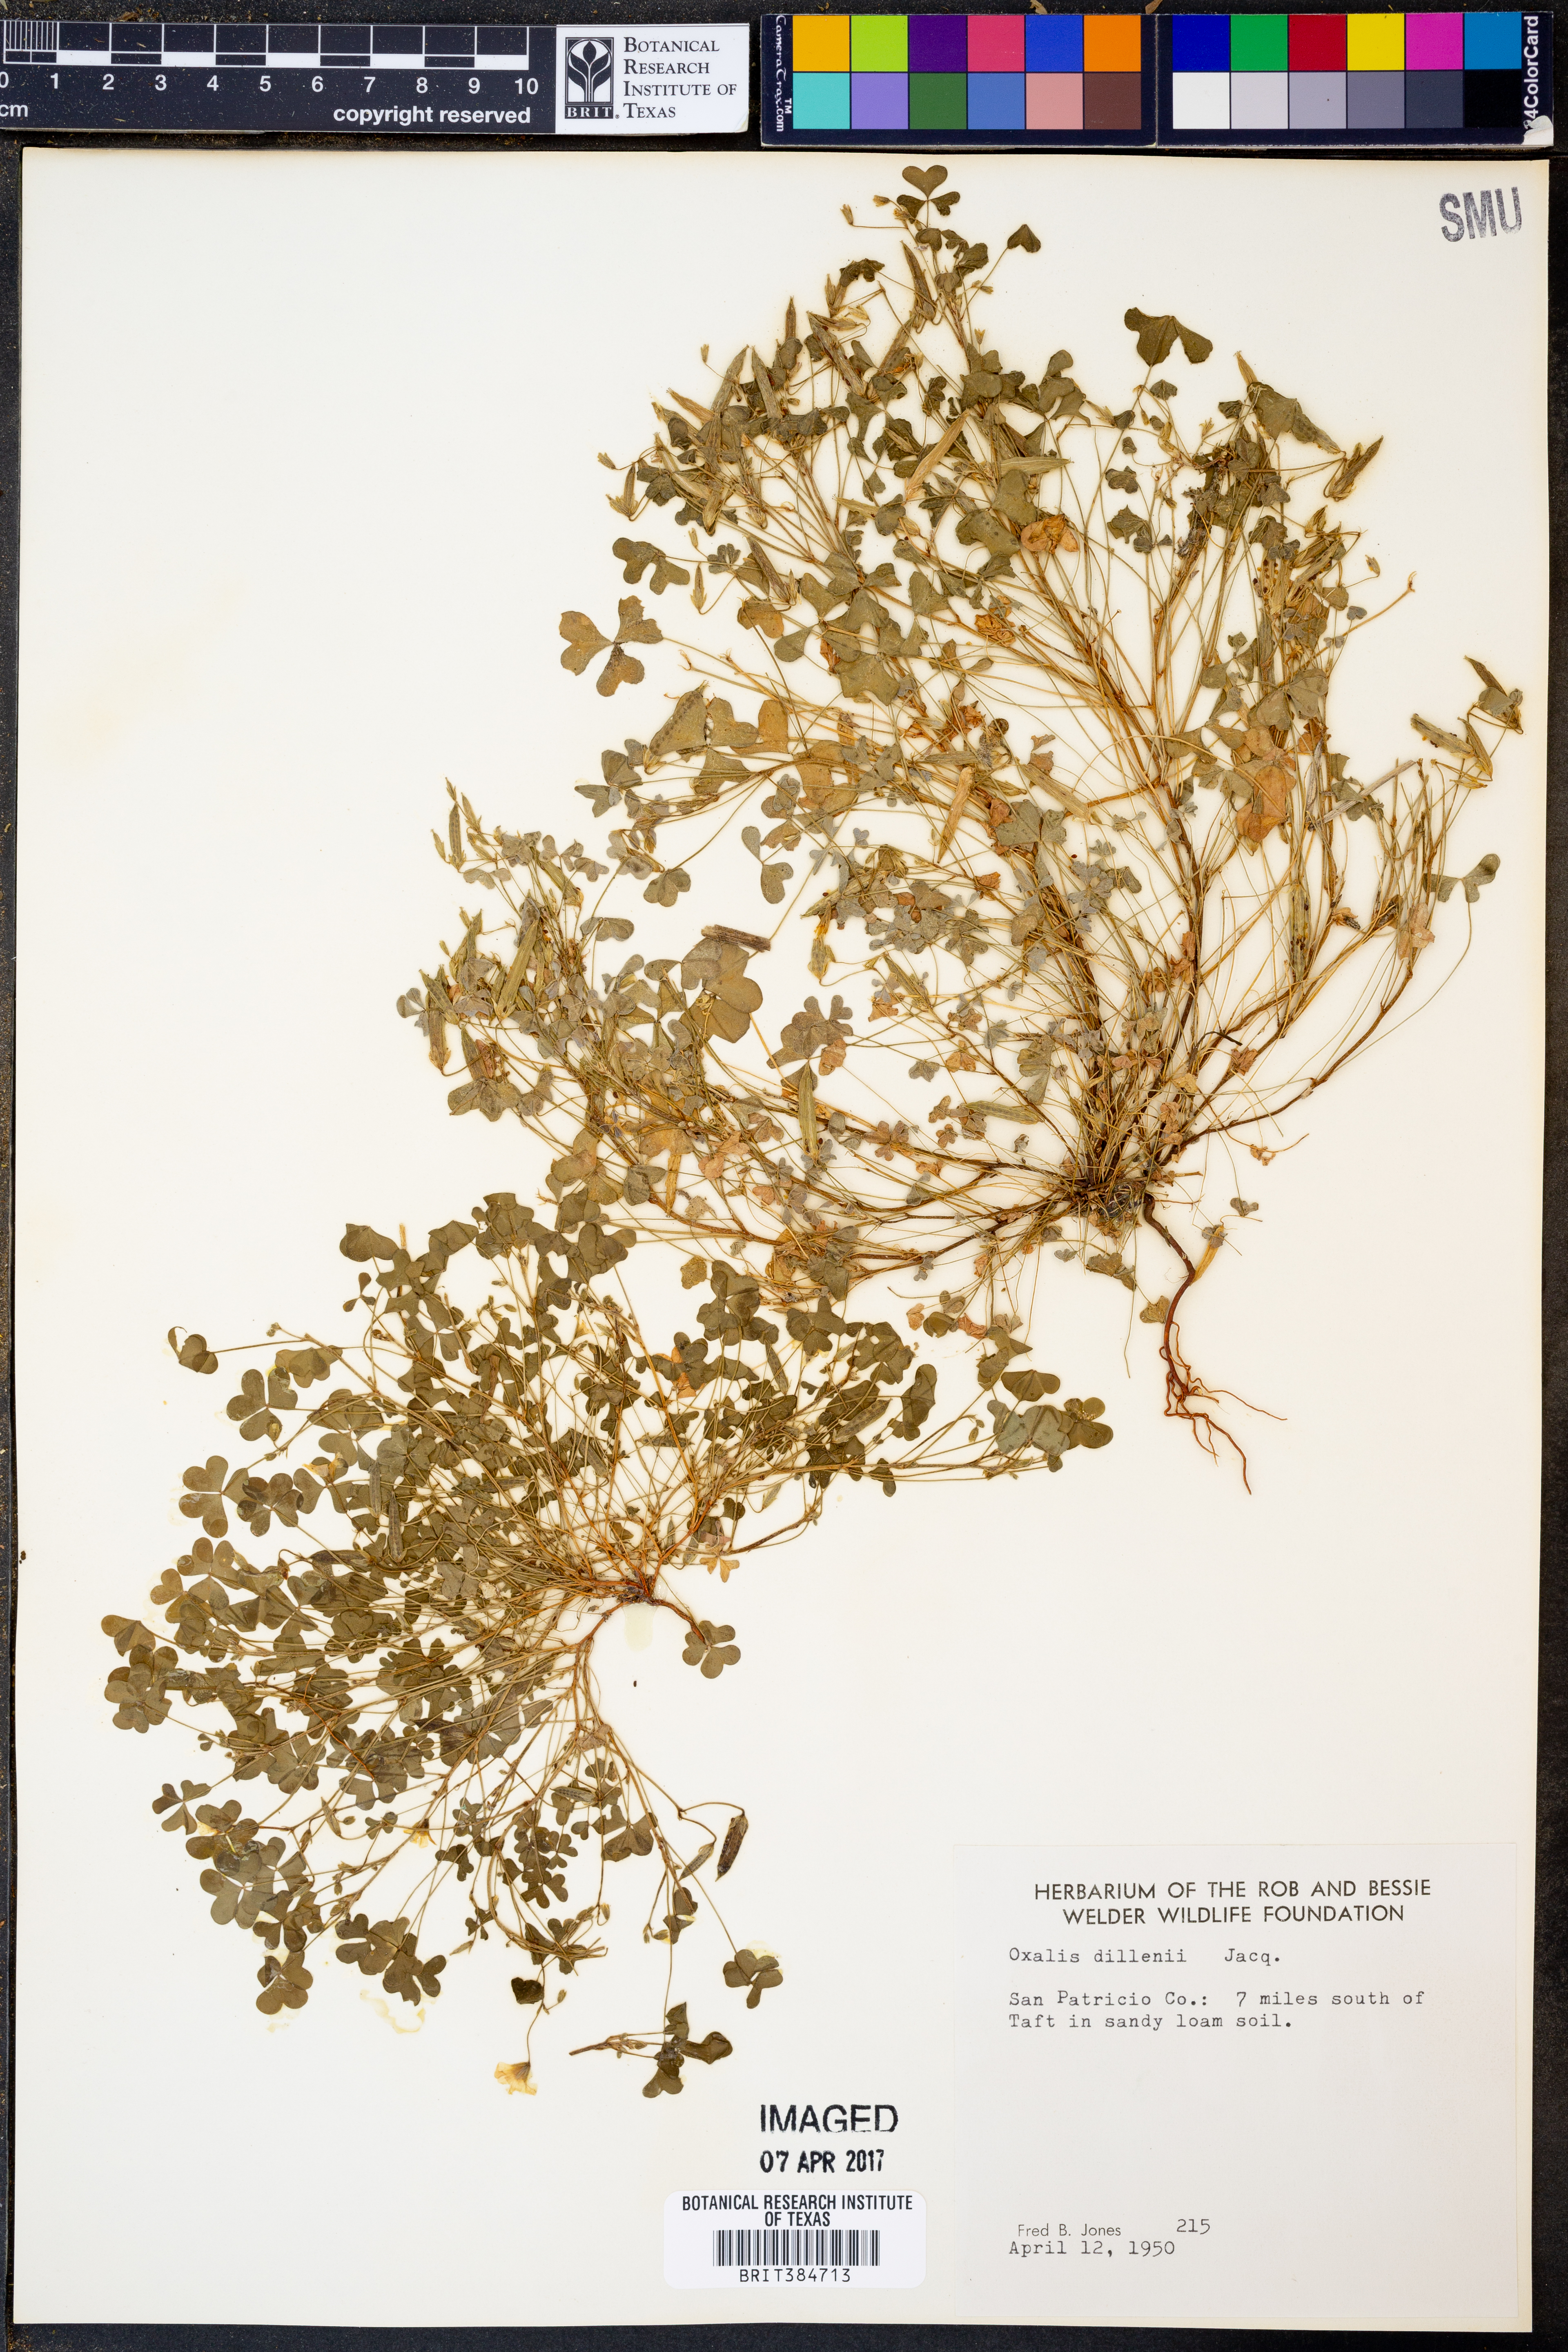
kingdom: Plantae
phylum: Tracheophyta
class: Magnoliopsida
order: Oxalidales
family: Oxalidaceae
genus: Oxalis
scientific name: Oxalis dillenii
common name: Sussex yellow-sorrel
